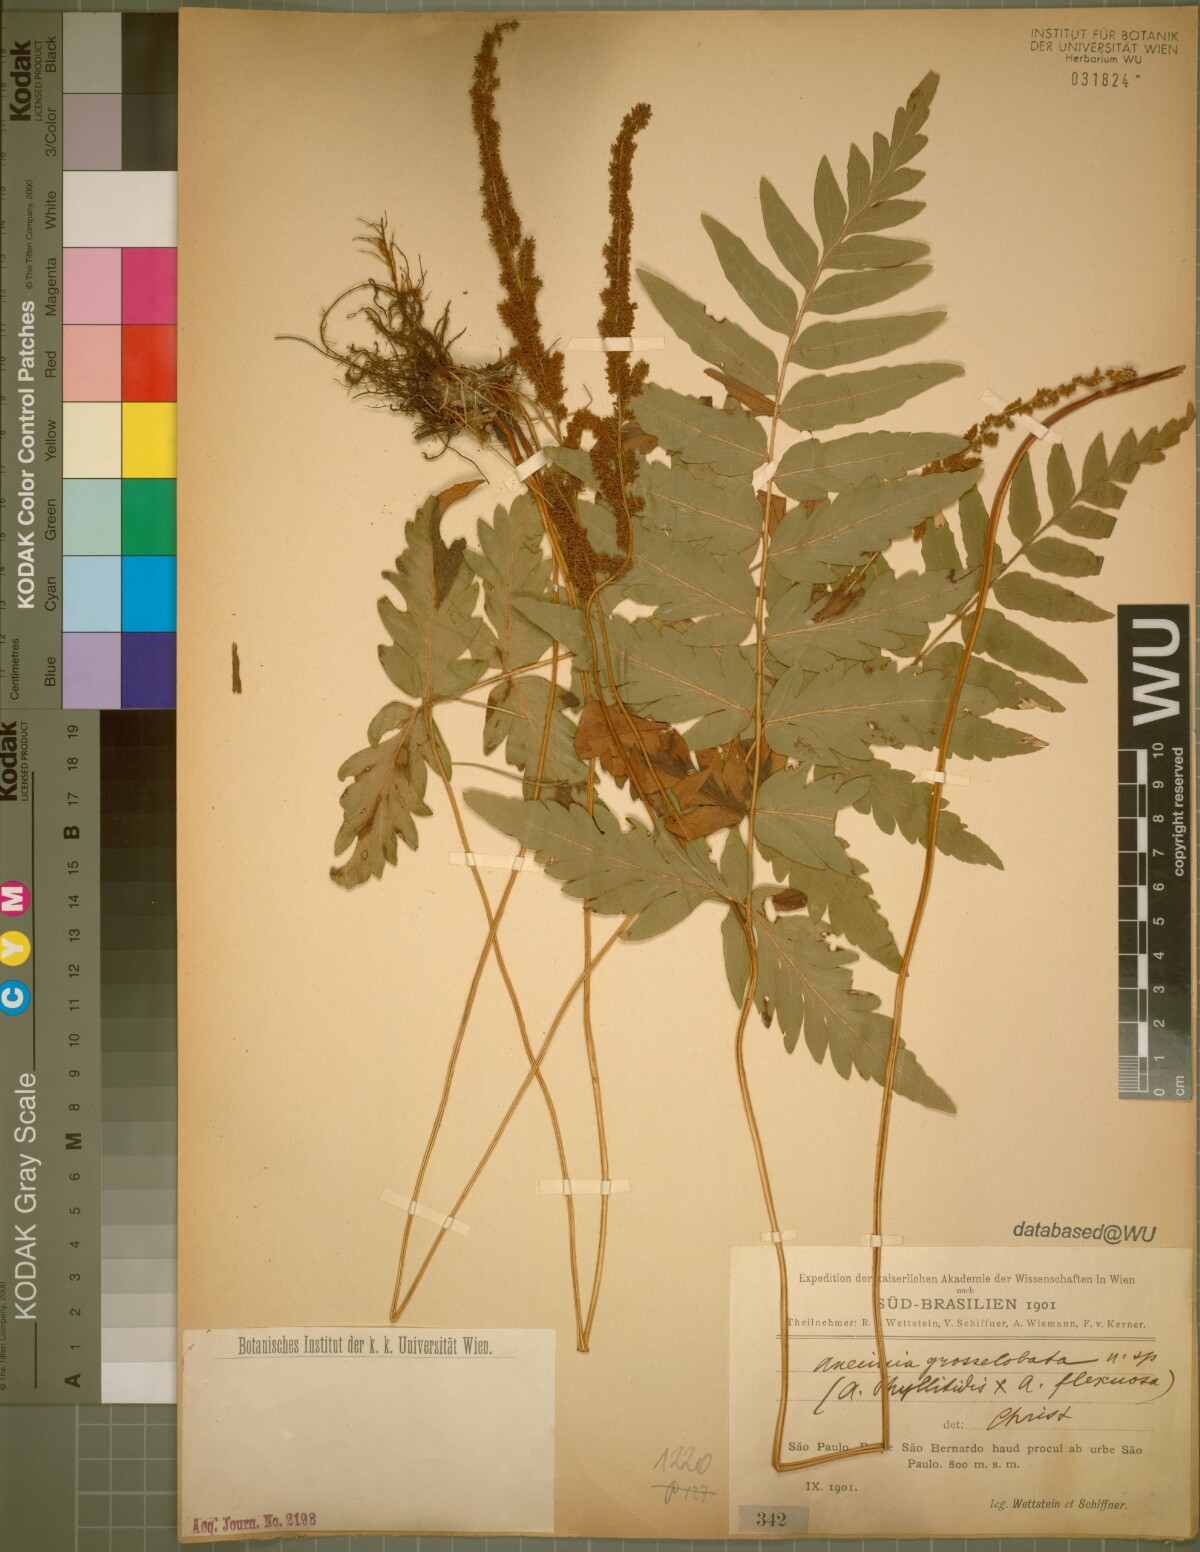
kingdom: Plantae
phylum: Tracheophyta
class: Polypodiopsida
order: Schizaeales
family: Schizaeaceae
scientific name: Schizaeaceae
